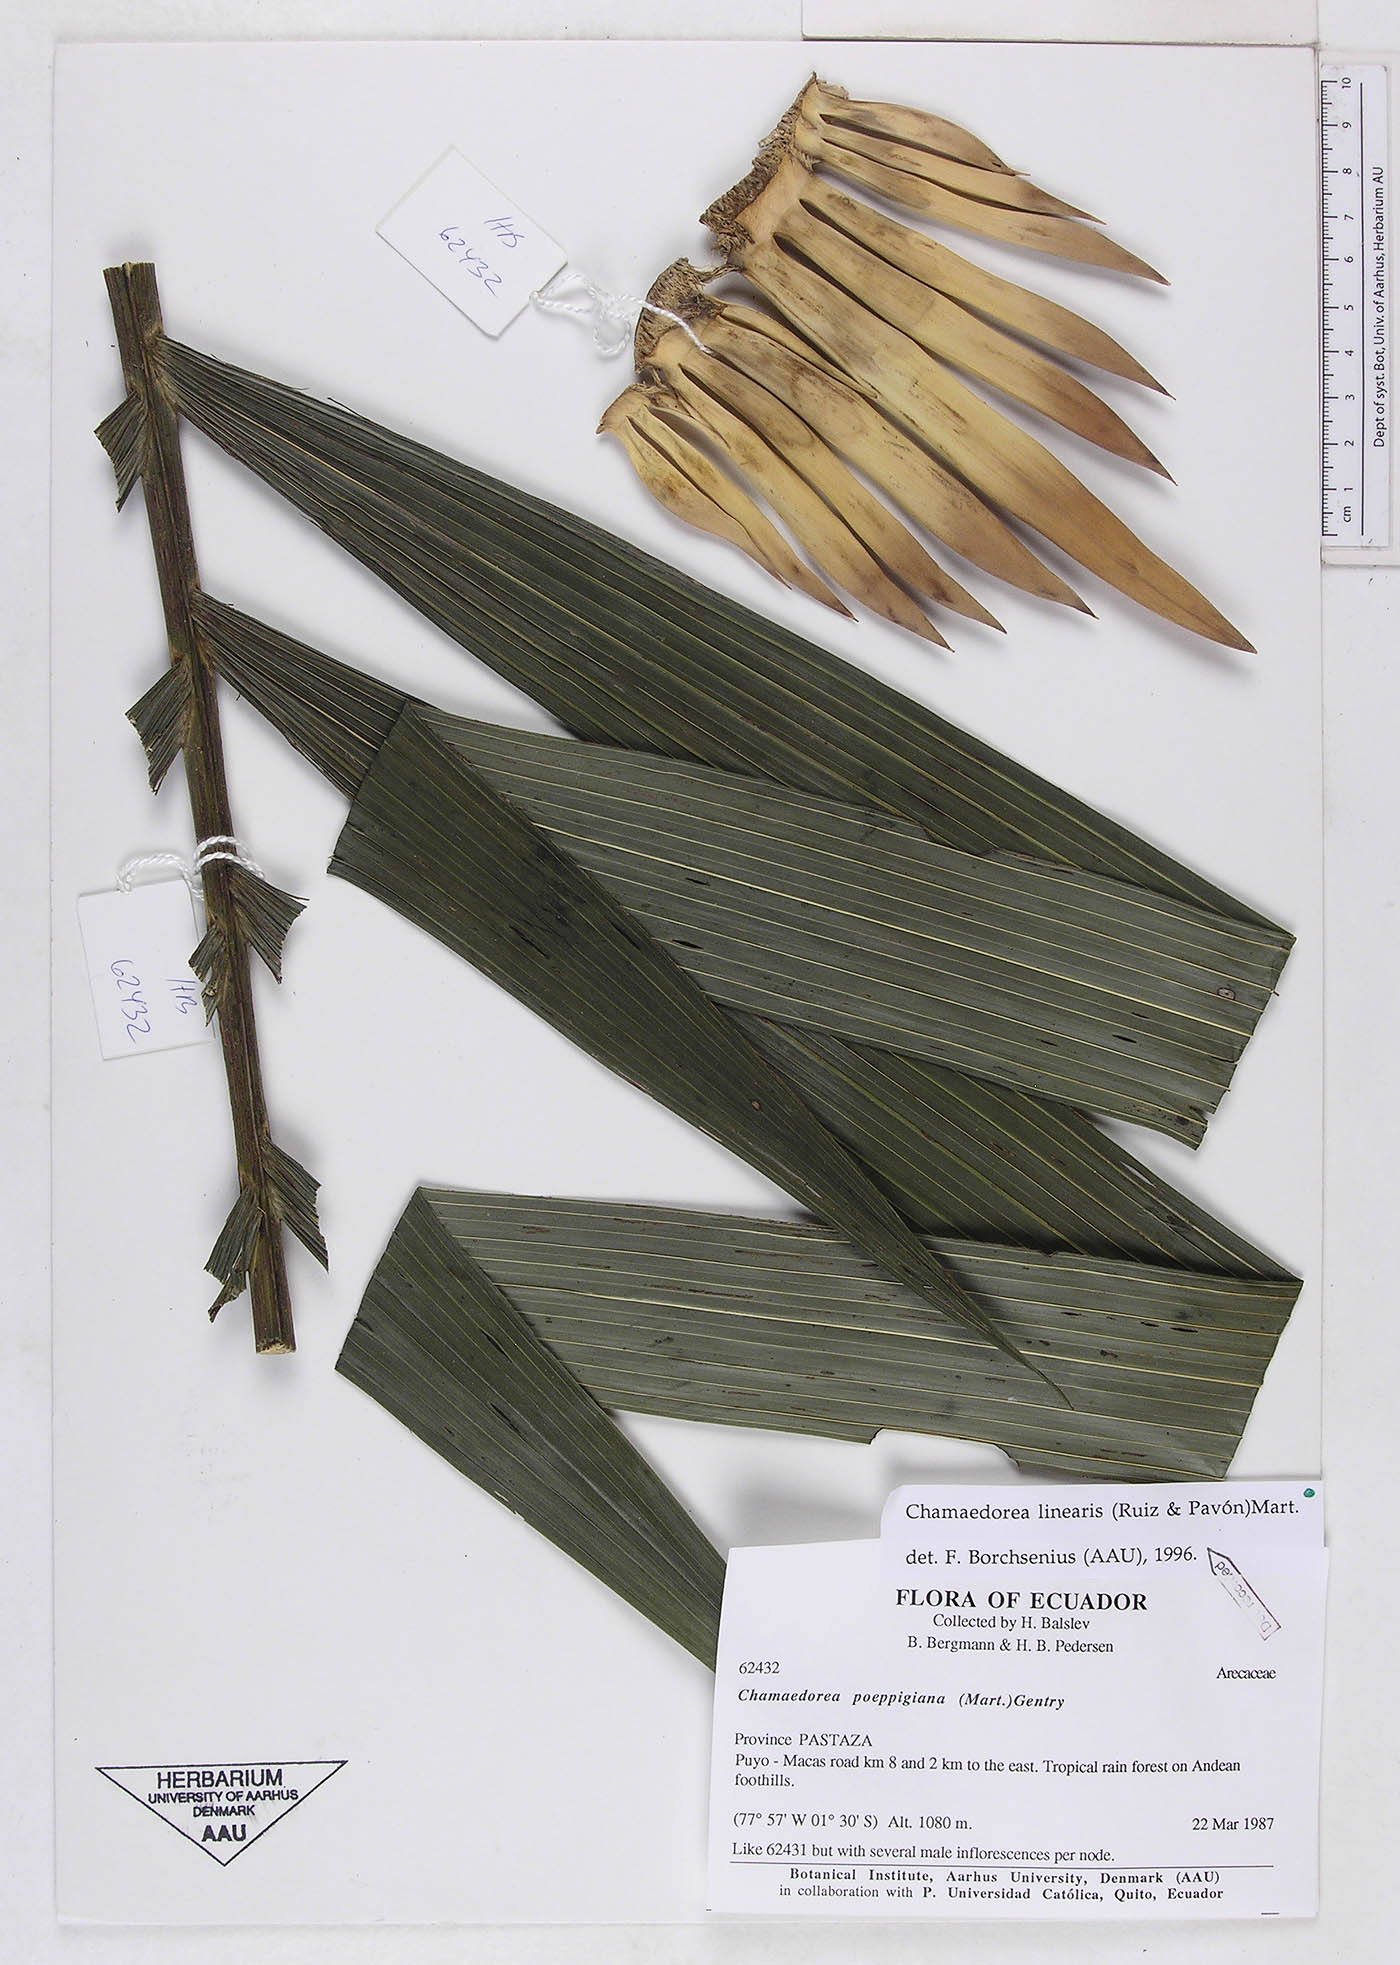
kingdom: Plantae
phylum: Tracheophyta
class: Liliopsida
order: Arecales
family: Arecaceae
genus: Chamaedorea
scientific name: Chamaedorea linearis
